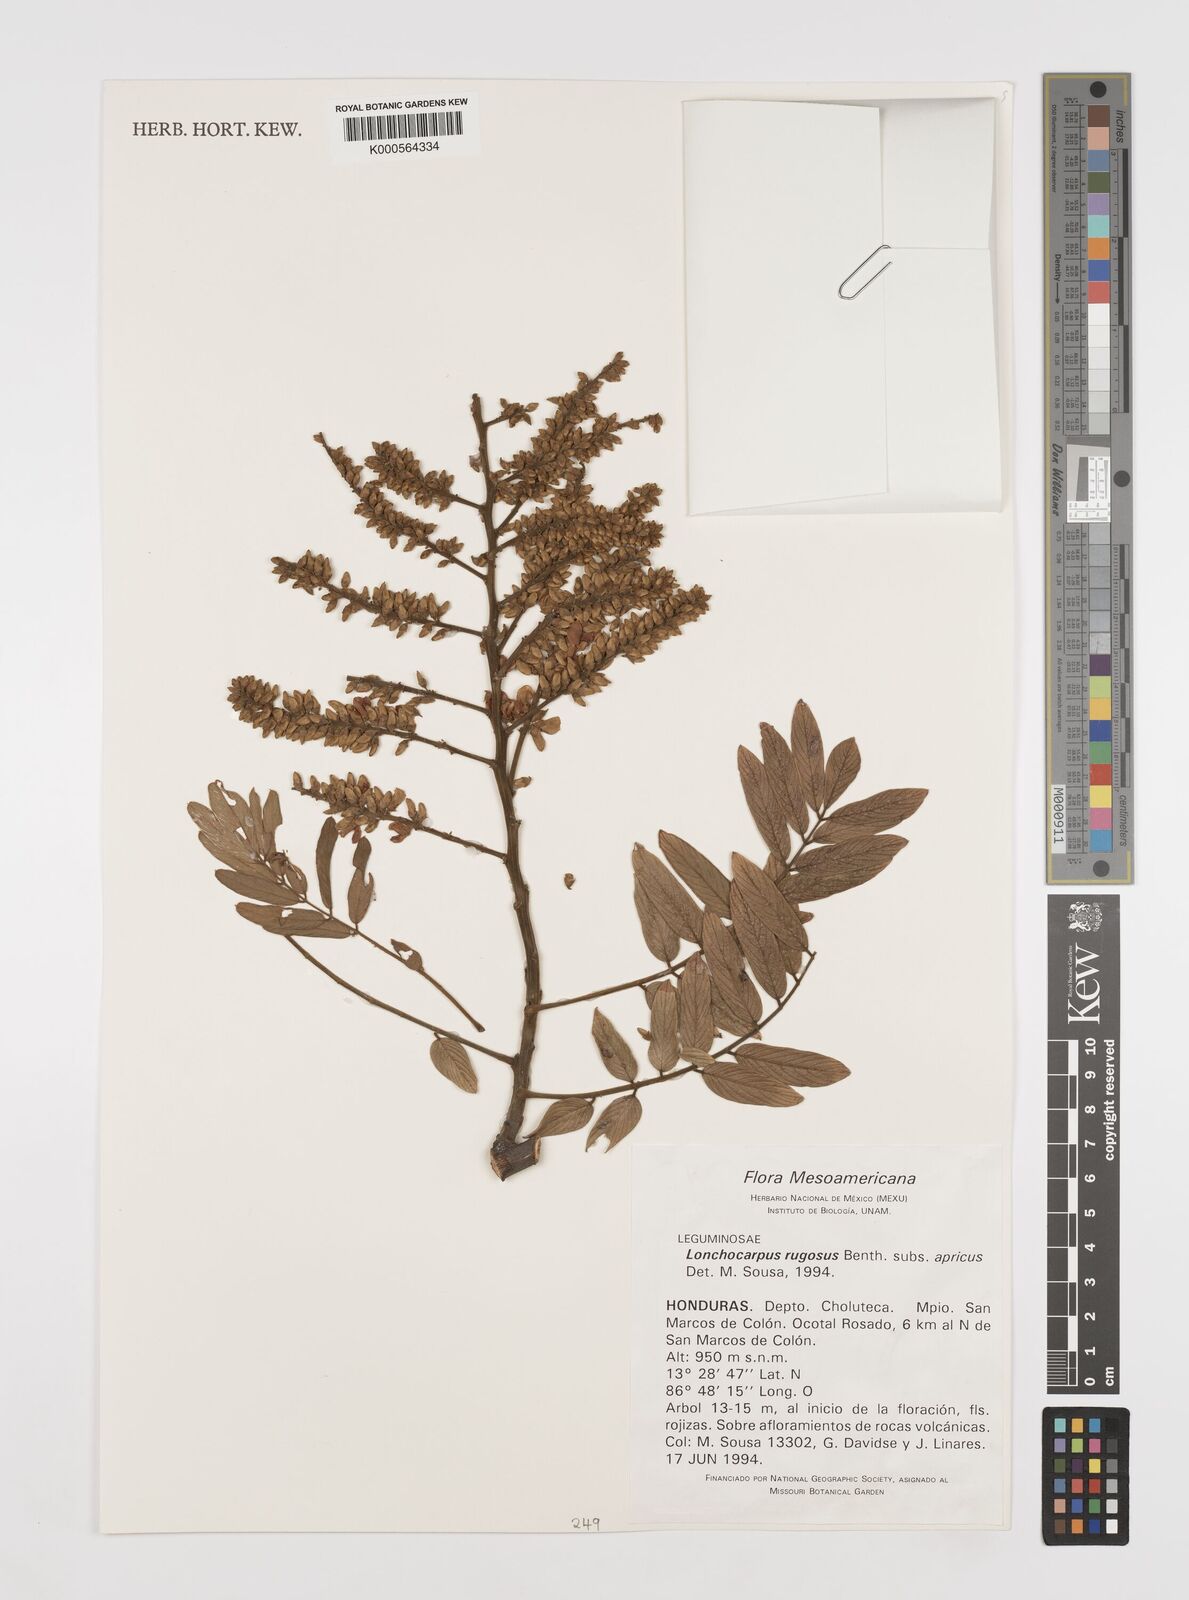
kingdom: Plantae
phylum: Tracheophyta
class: Magnoliopsida
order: Fabales
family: Fabaceae
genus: Lonchocarpus
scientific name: Lonchocarpus rugosus
